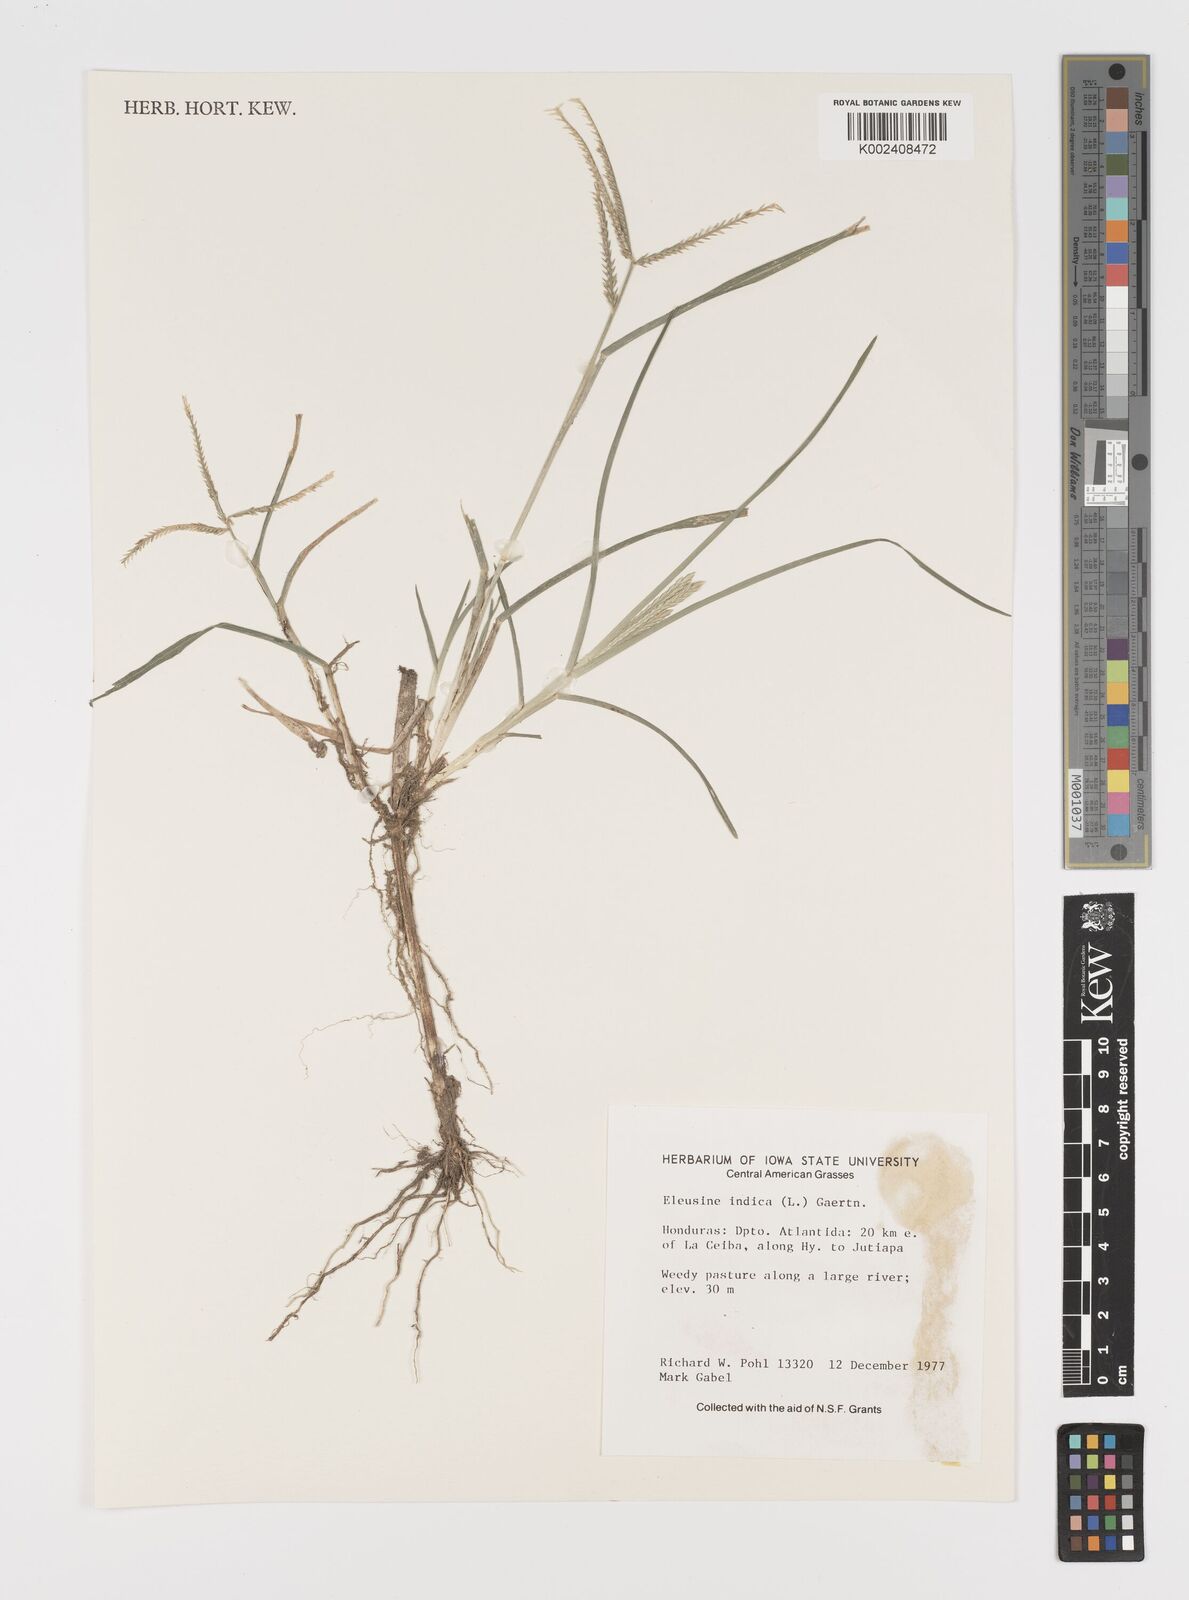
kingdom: Plantae
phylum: Tracheophyta
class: Liliopsida
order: Poales
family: Poaceae
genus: Eleusine
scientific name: Eleusine indica
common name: Yard-grass
